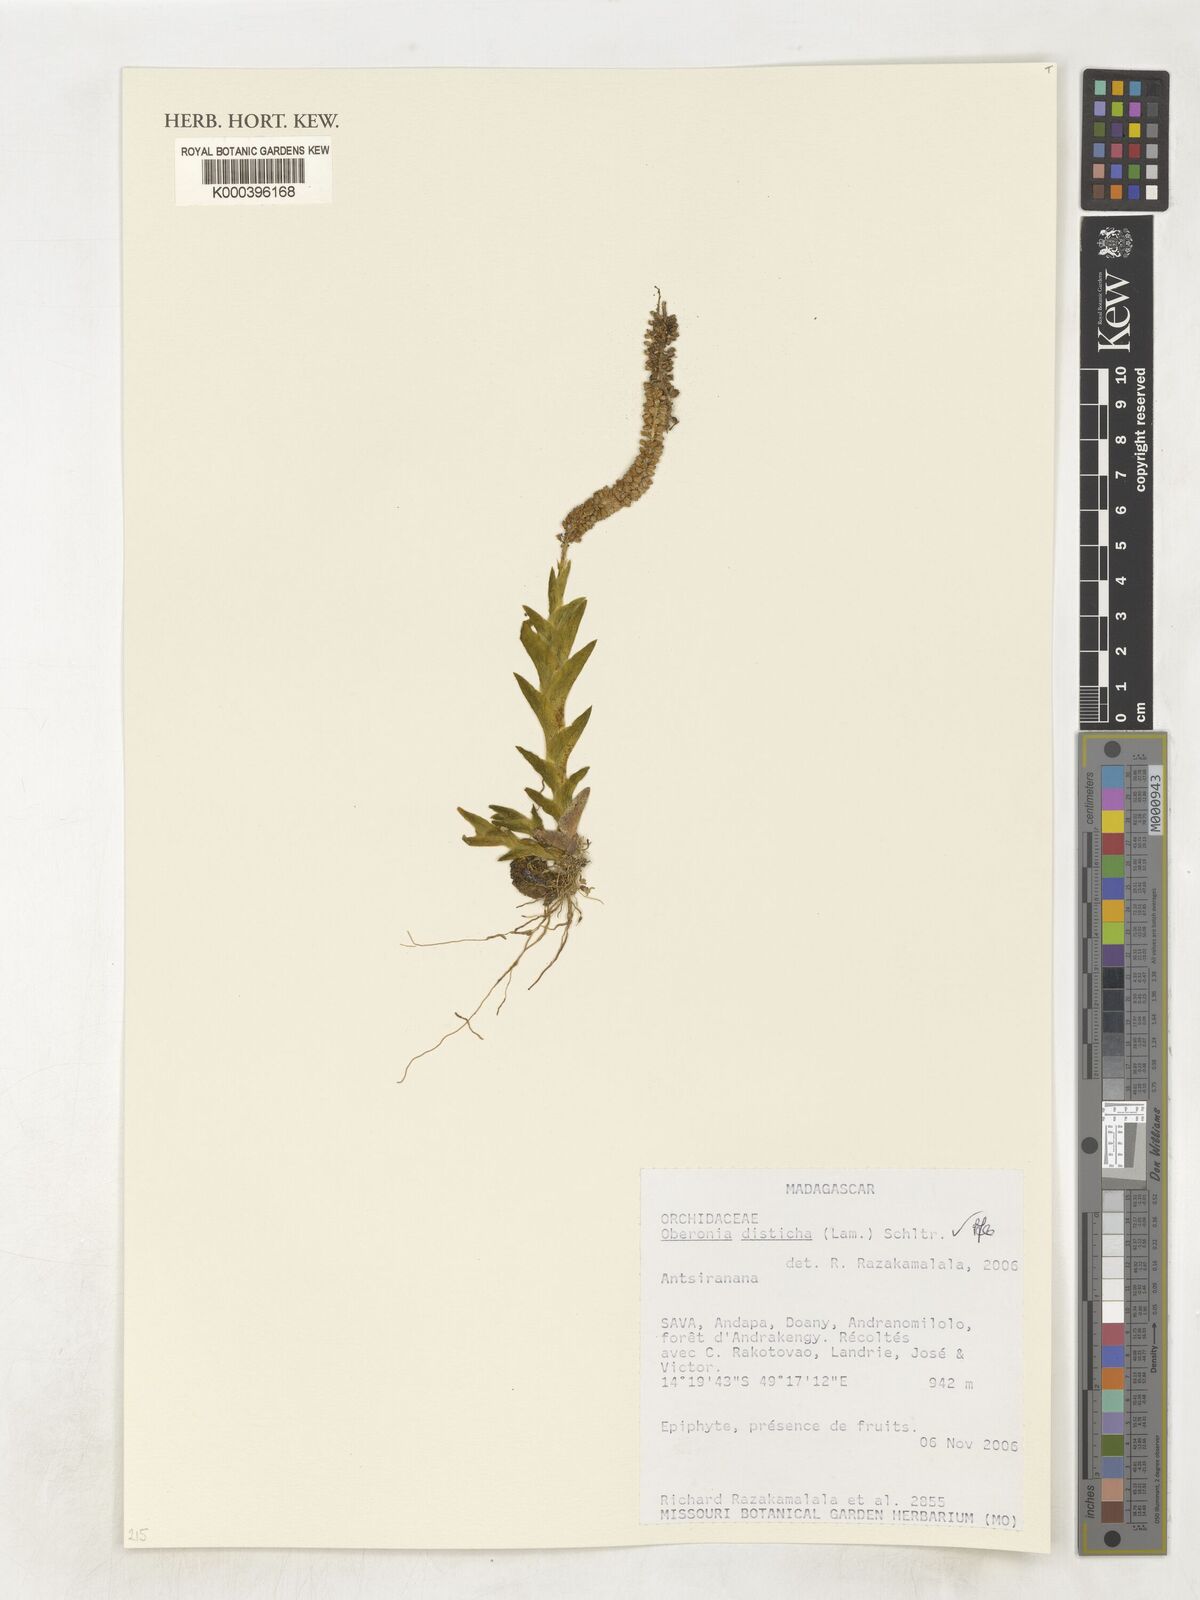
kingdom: Plantae
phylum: Tracheophyta
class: Liliopsida
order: Asparagales
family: Orchidaceae
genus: Oberonia
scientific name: Oberonia disticha
